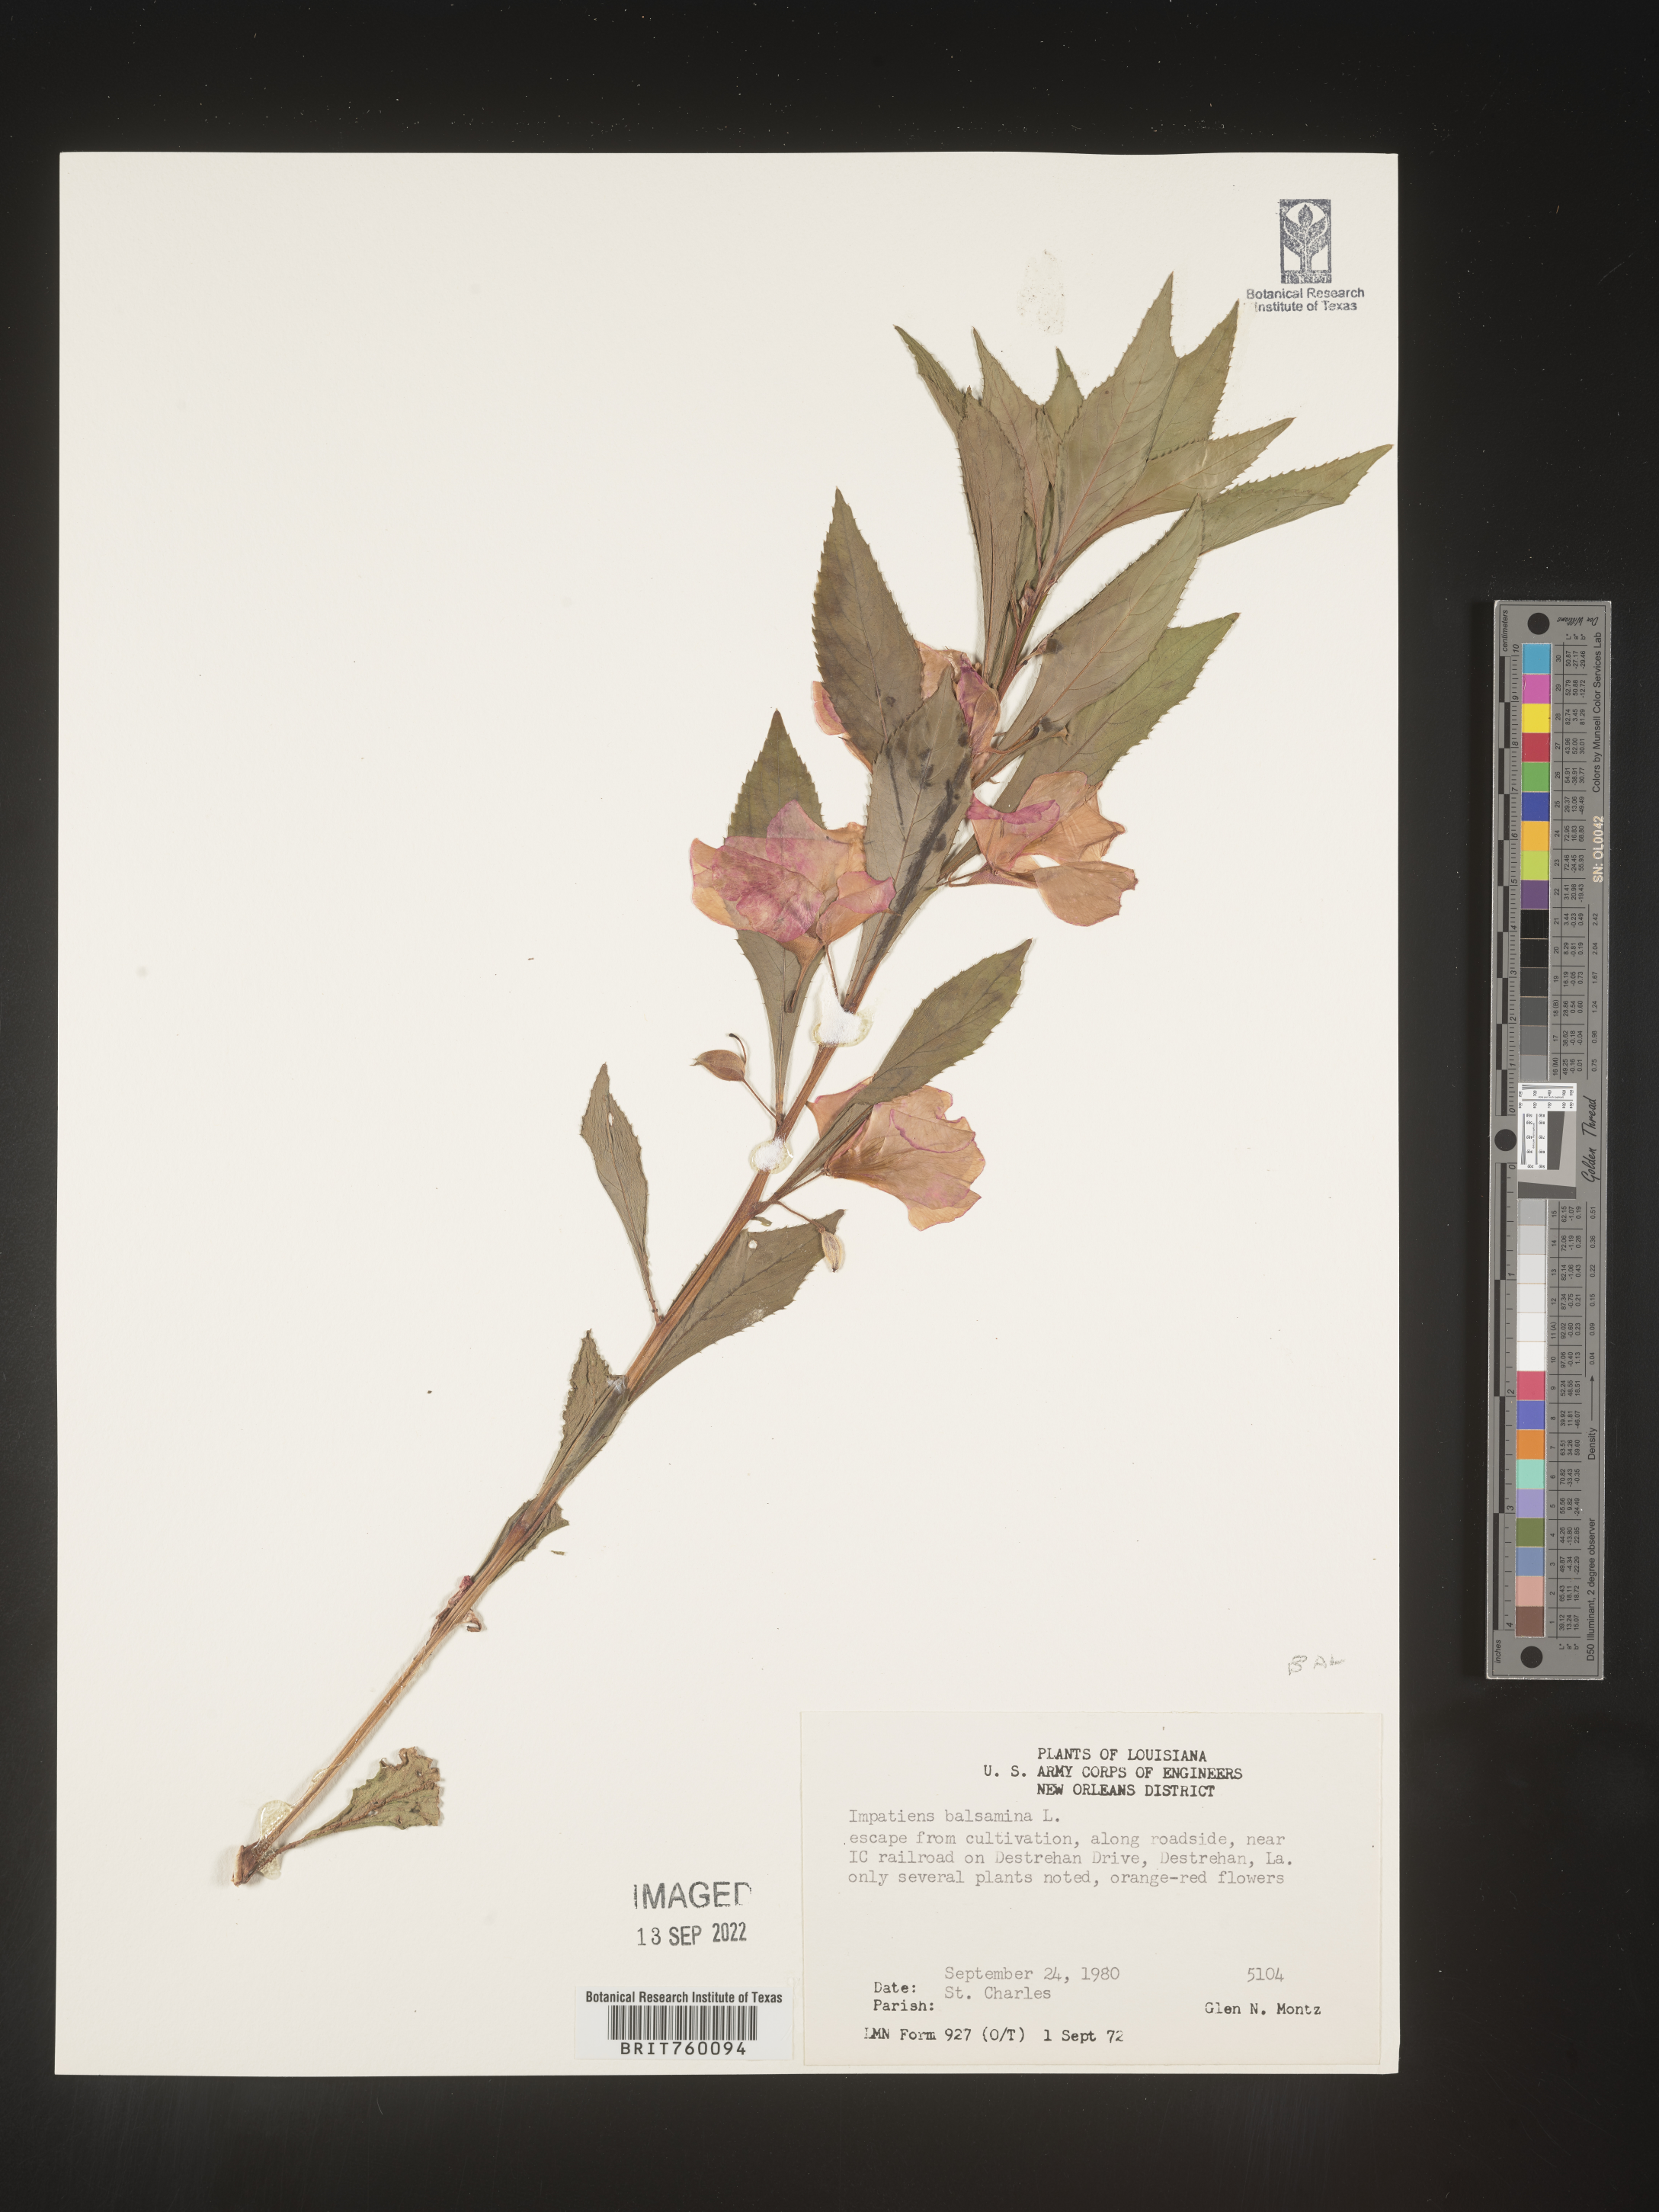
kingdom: Plantae
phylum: Tracheophyta
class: Magnoliopsida
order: Ericales
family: Balsaminaceae
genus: Impatiens
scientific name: Impatiens
